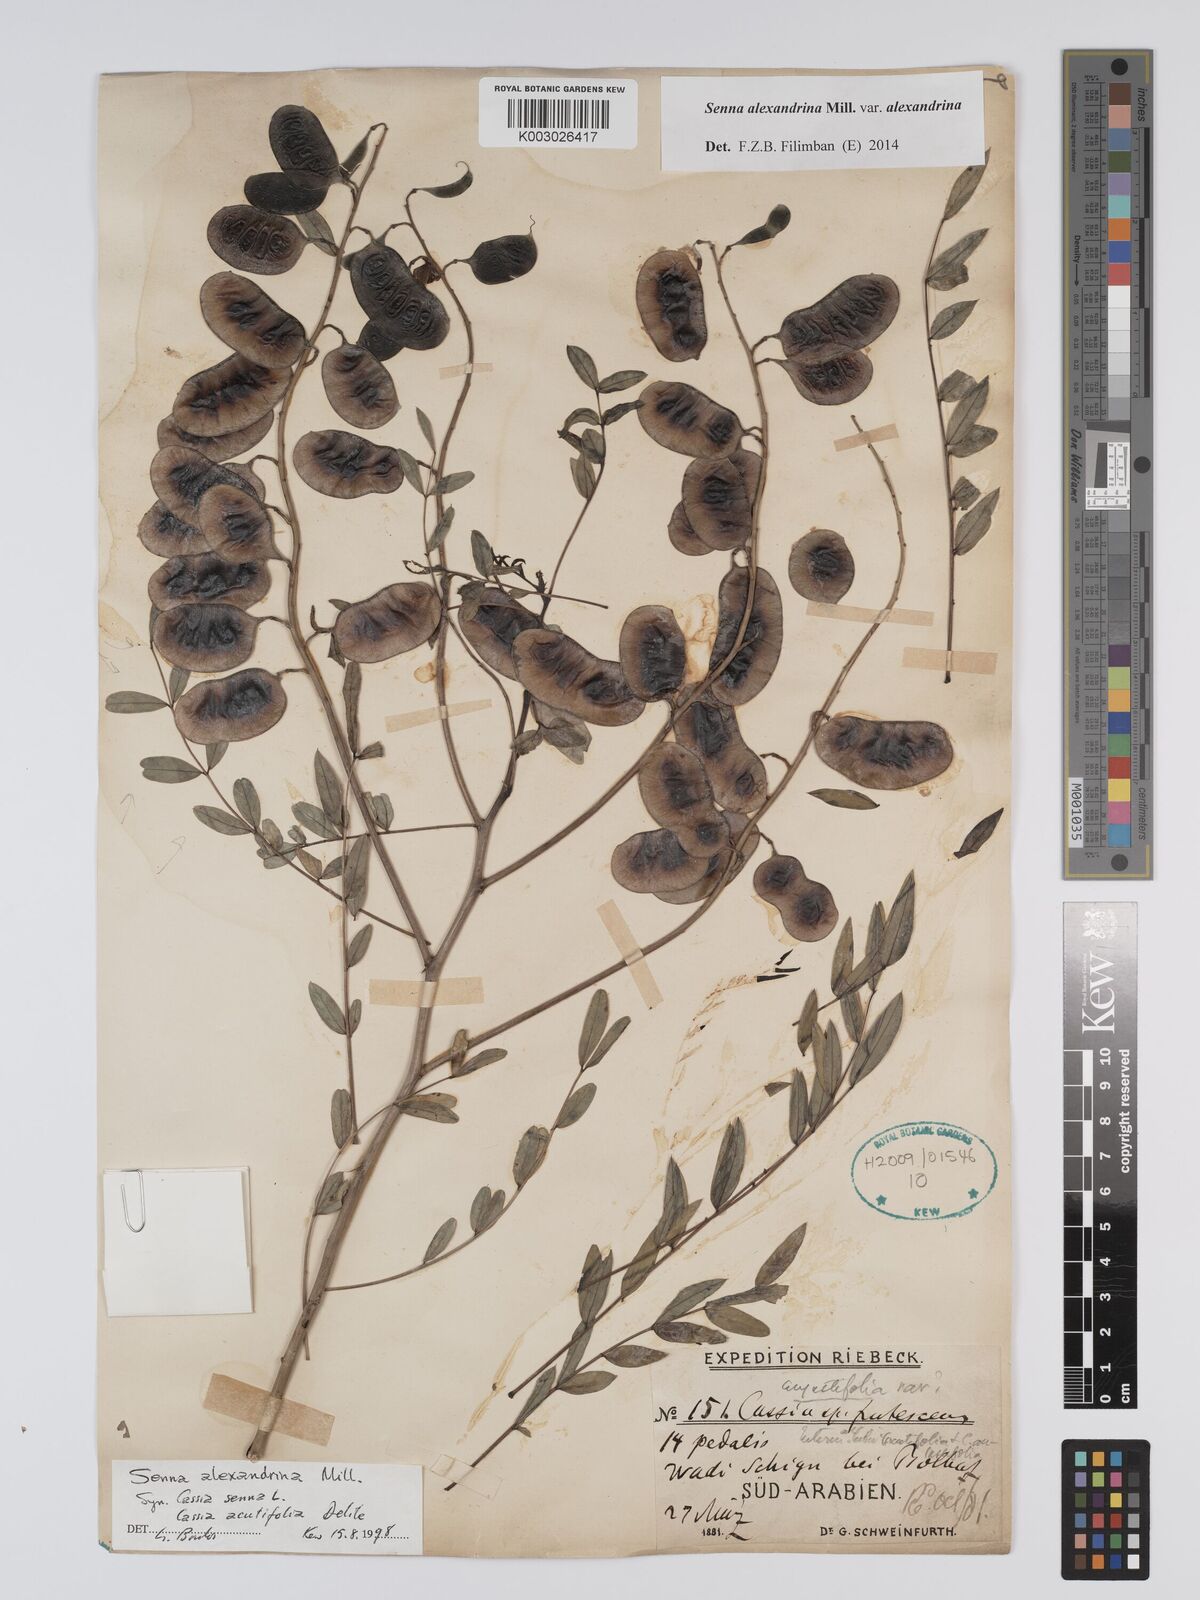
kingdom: Plantae
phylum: Tracheophyta
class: Magnoliopsida
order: Fabales
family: Fabaceae
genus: Senna
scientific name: Senna alexandrina
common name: True senna
